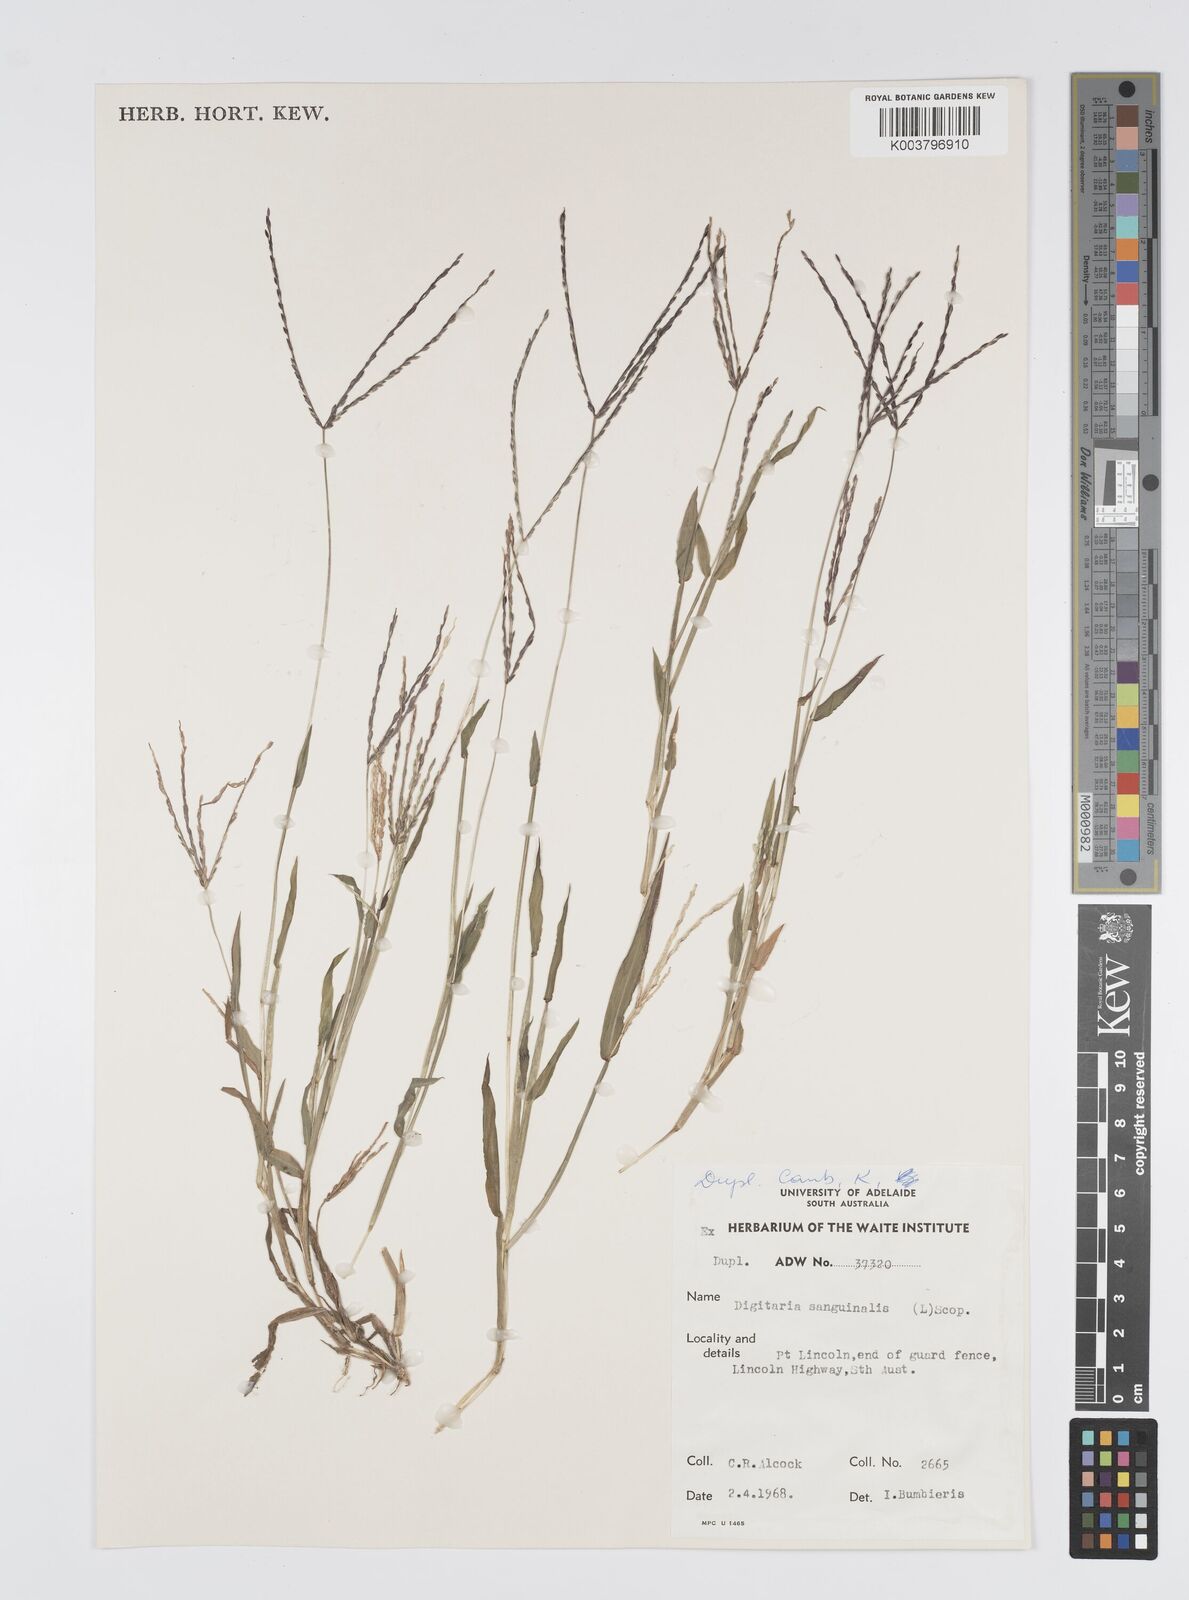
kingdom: Plantae
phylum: Tracheophyta
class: Liliopsida
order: Poales
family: Poaceae
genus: Digitaria
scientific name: Digitaria sanguinalis
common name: Hairy crabgrass
